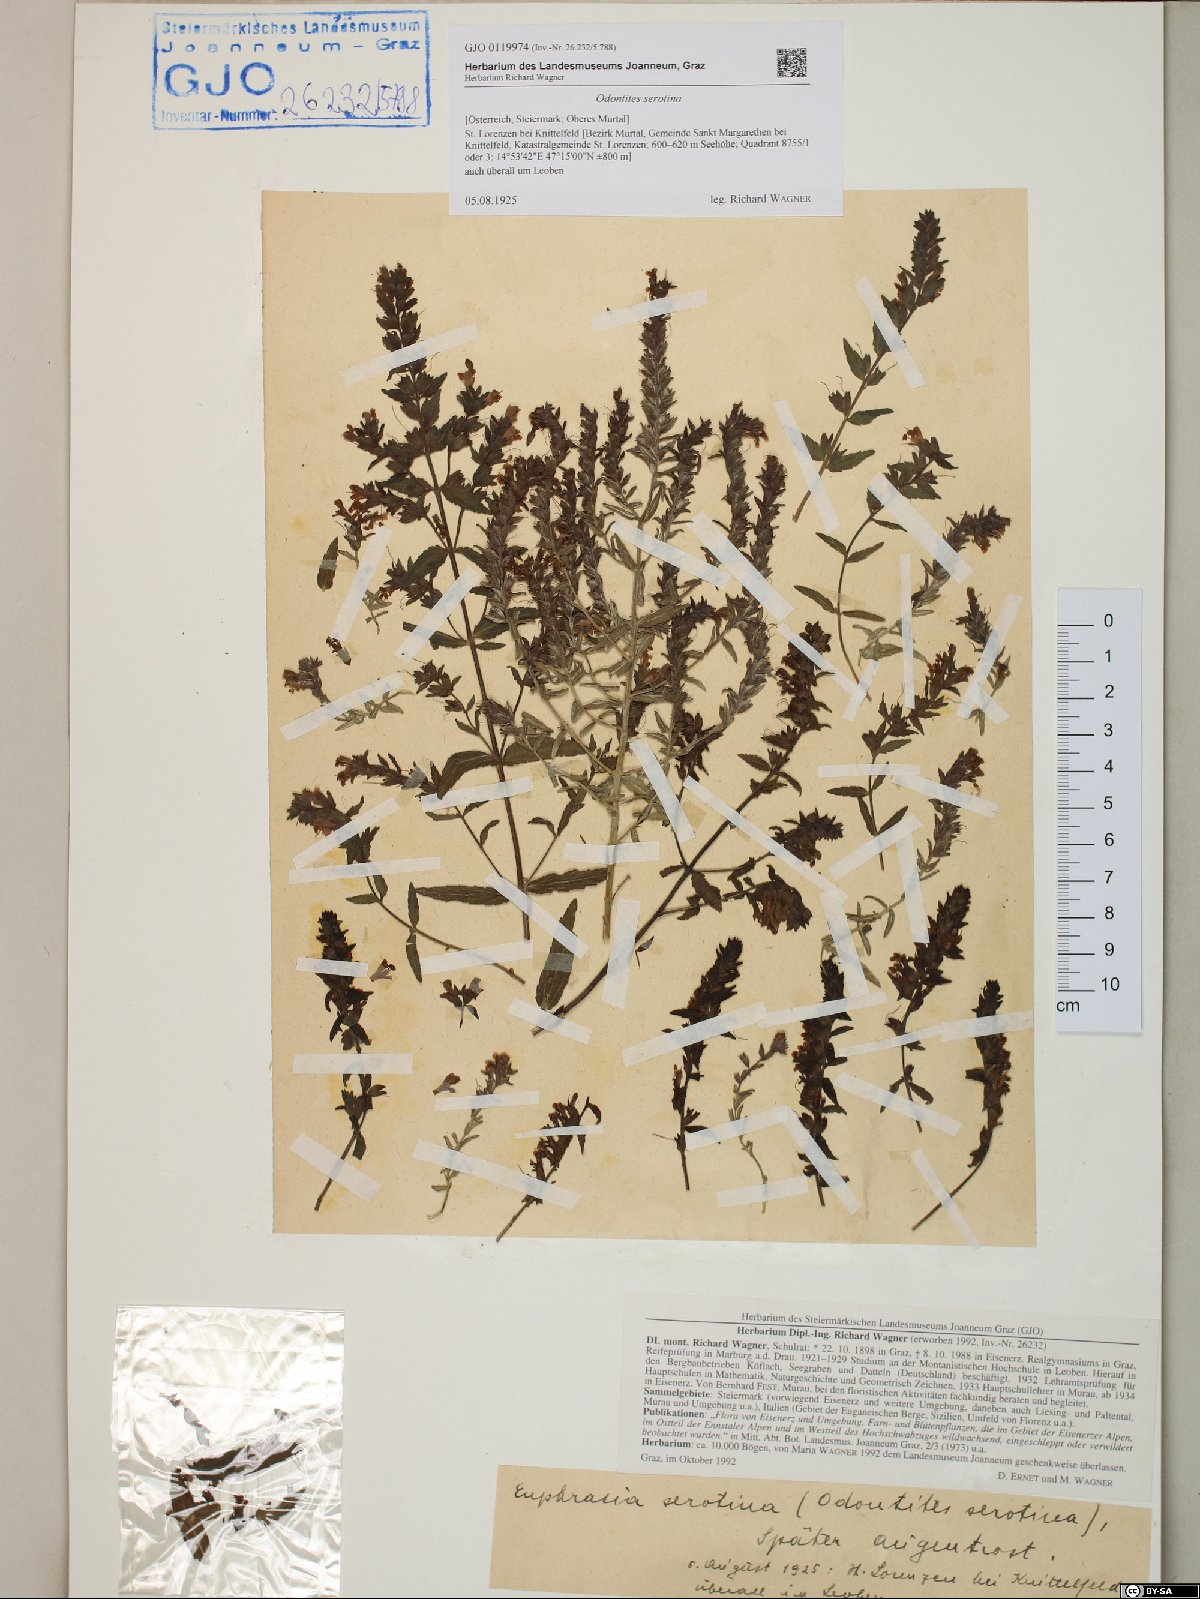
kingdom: Plantae
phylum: Tracheophyta
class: Magnoliopsida
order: Lamiales
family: Orobanchaceae
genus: Odontites
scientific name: Odontites vulgaris
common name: Broomrape
